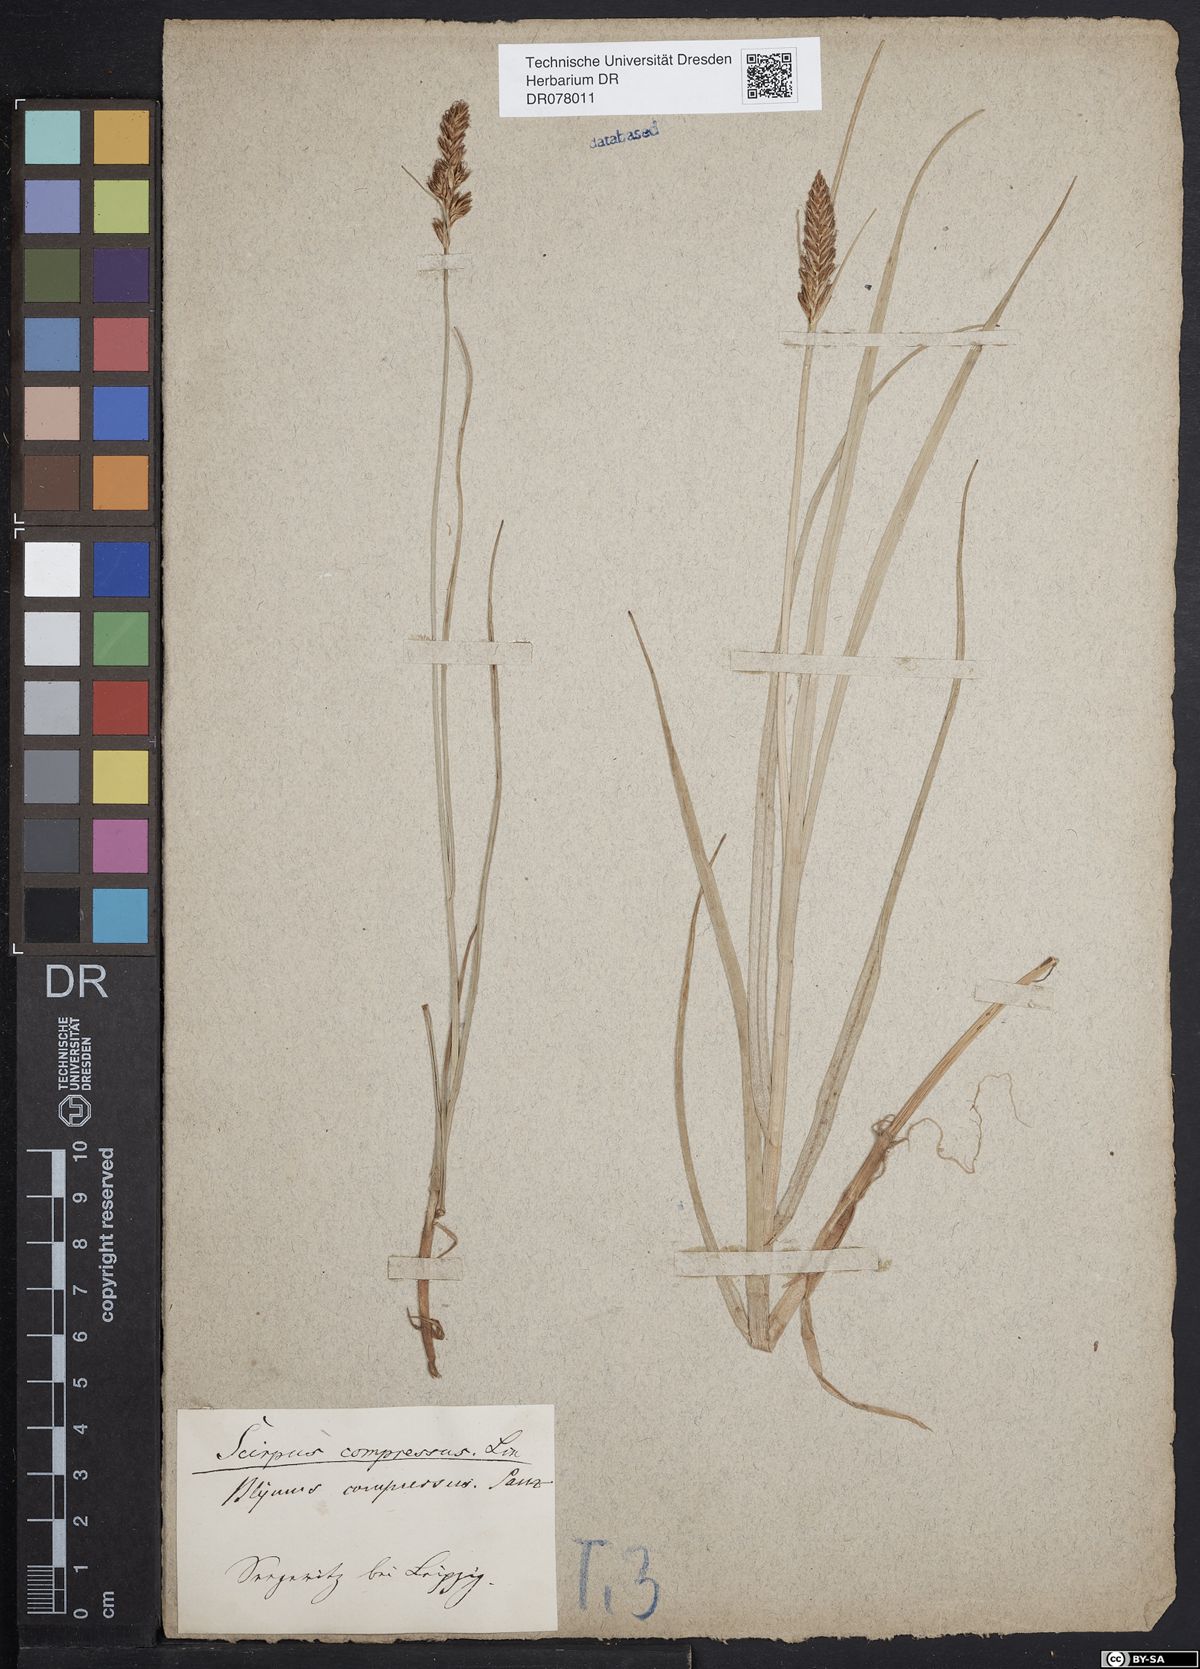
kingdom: Plantae
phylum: Tracheophyta
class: Liliopsida
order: Poales
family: Cyperaceae
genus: Blysmus
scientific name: Blysmus compressus
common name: Flat-sedge
